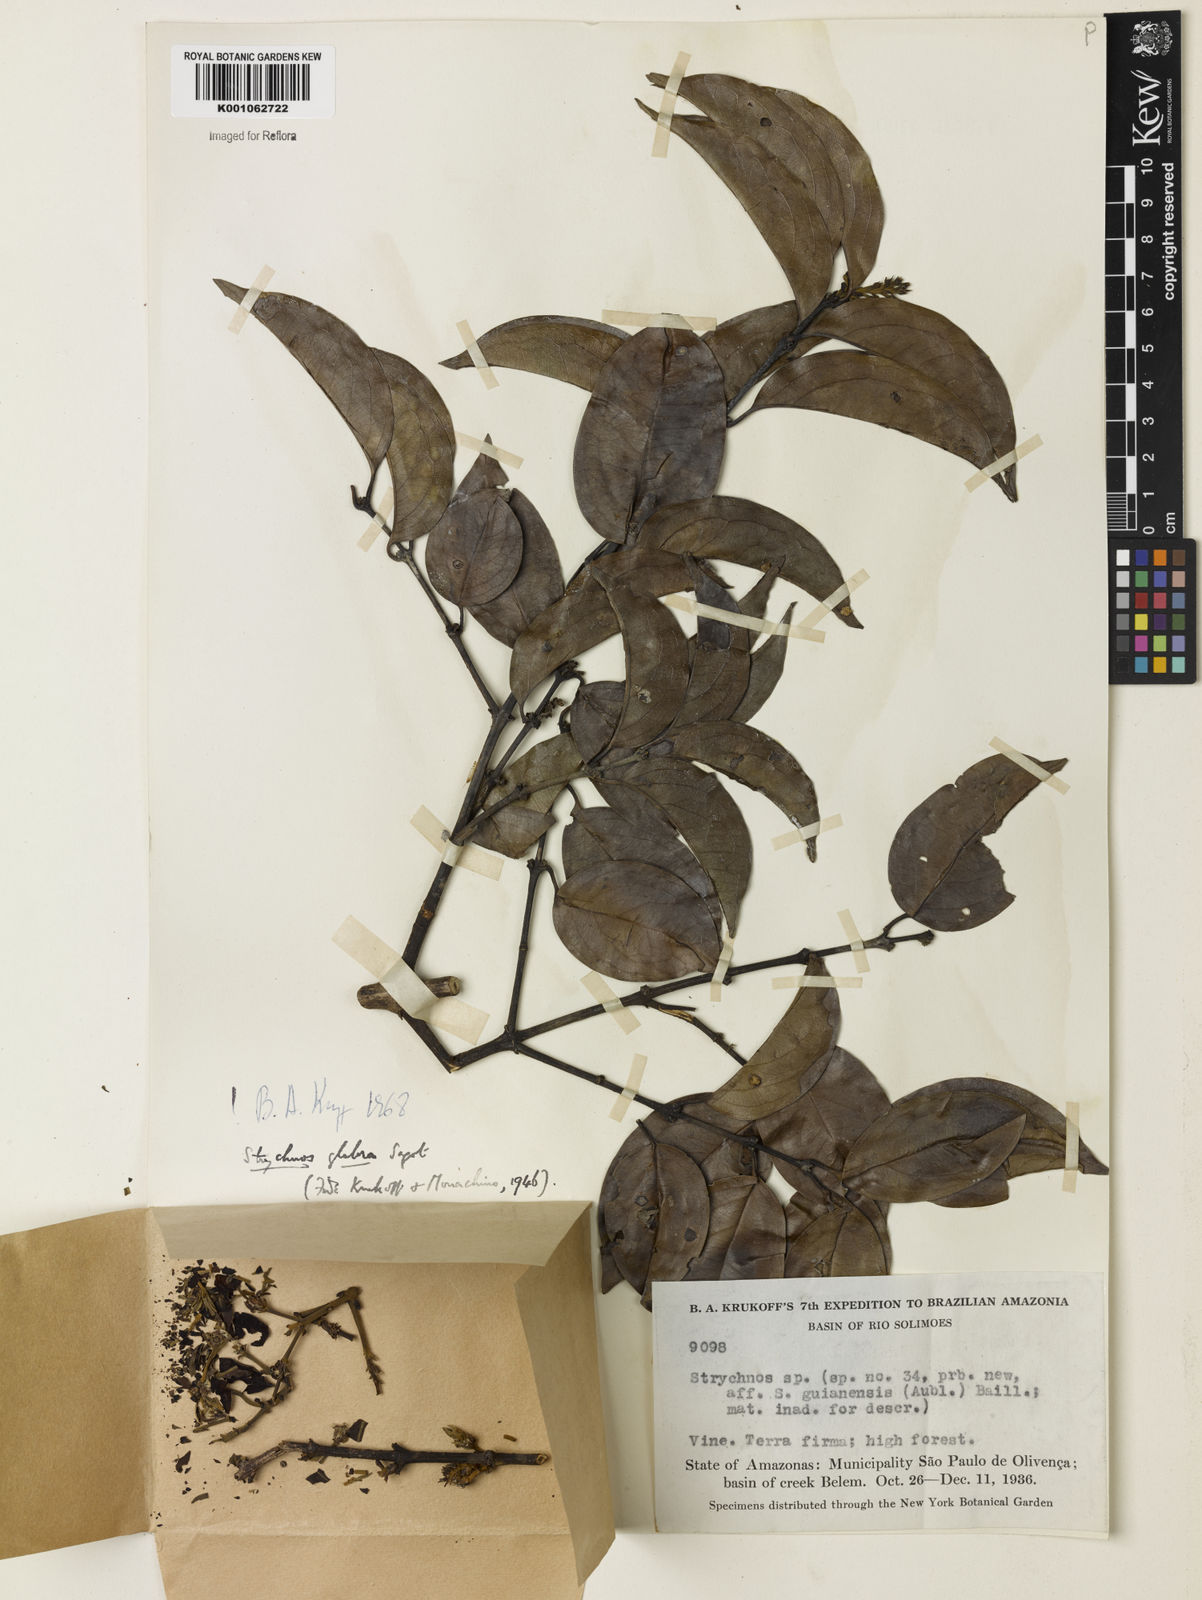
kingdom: Plantae
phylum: Tracheophyta
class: Magnoliopsida
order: Gentianales
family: Loganiaceae
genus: Strychnos
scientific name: Strychnos glabra
